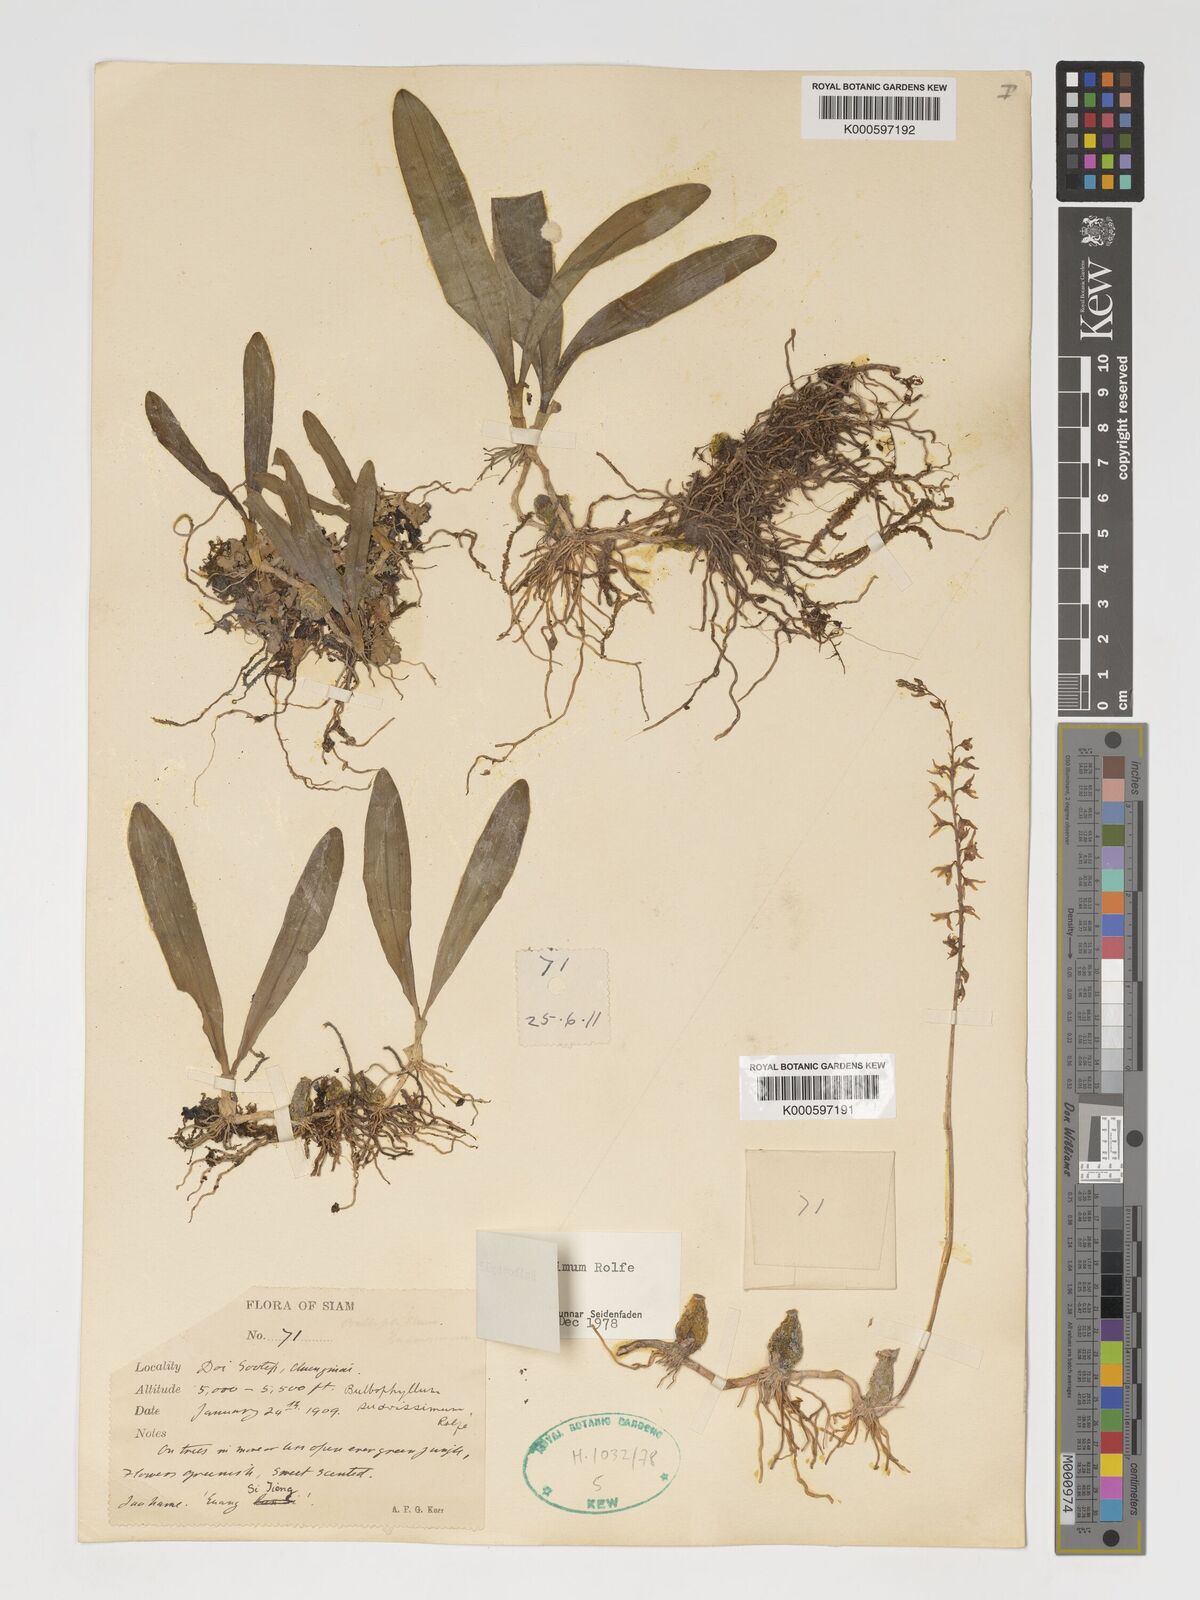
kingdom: Plantae
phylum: Tracheophyta
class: Liliopsida
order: Asparagales
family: Orchidaceae
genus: Bulbophyllum
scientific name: Bulbophyllum suavissimum
